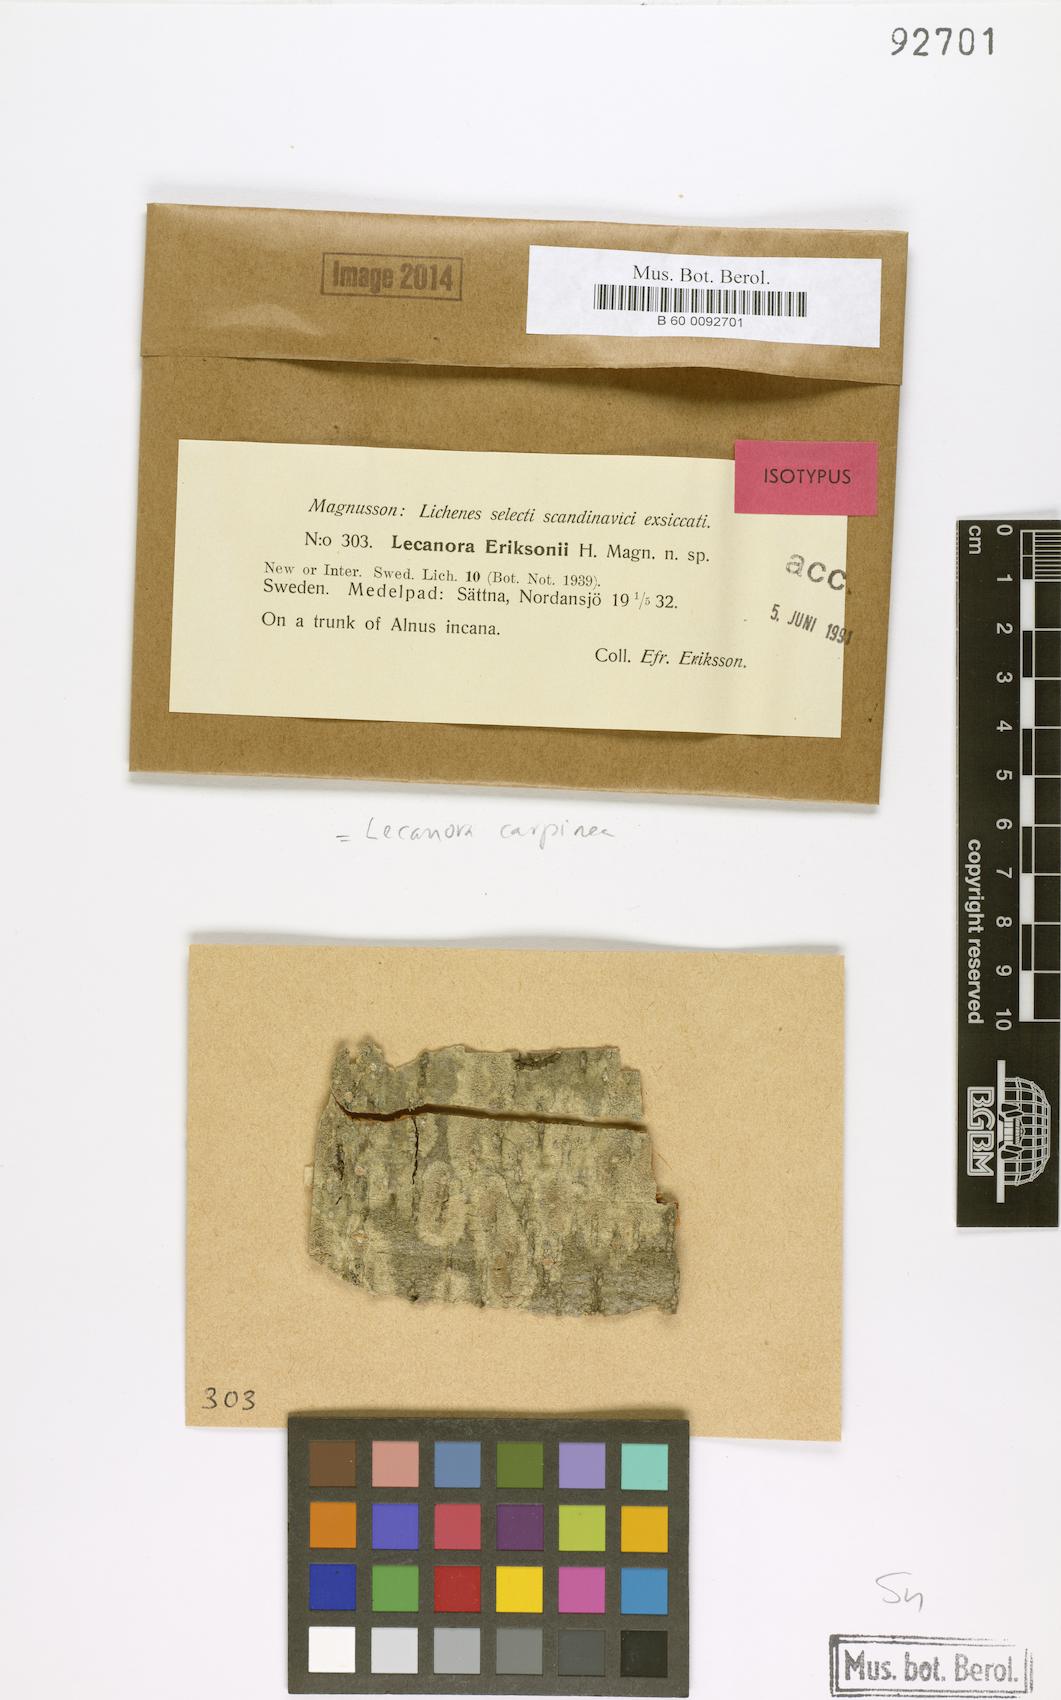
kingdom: Fungi
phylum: Ascomycota
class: Lecanoromycetes
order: Lecanorales
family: Lecanoraceae
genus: Glaucomaria
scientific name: Glaucomaria carpinea
